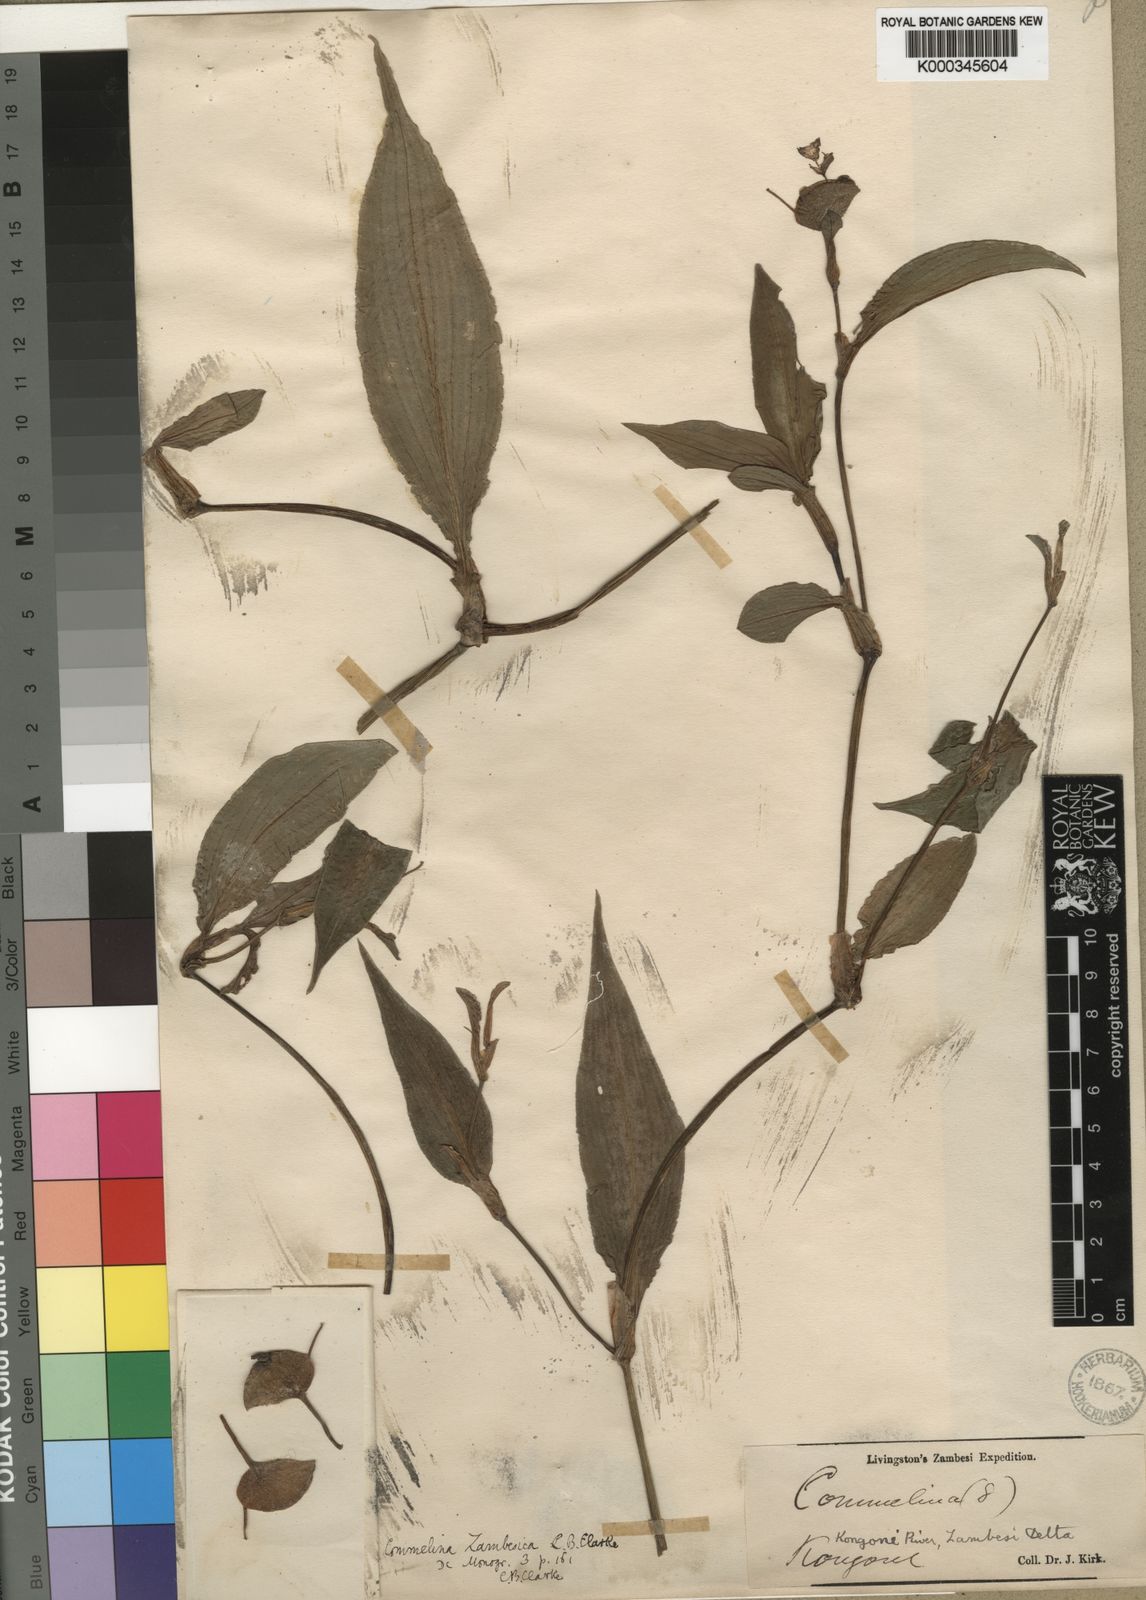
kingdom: Plantae
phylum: Tracheophyta
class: Liliopsida
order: Commelinales
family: Commelinaceae
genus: Commelina
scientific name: Commelina zambesica
